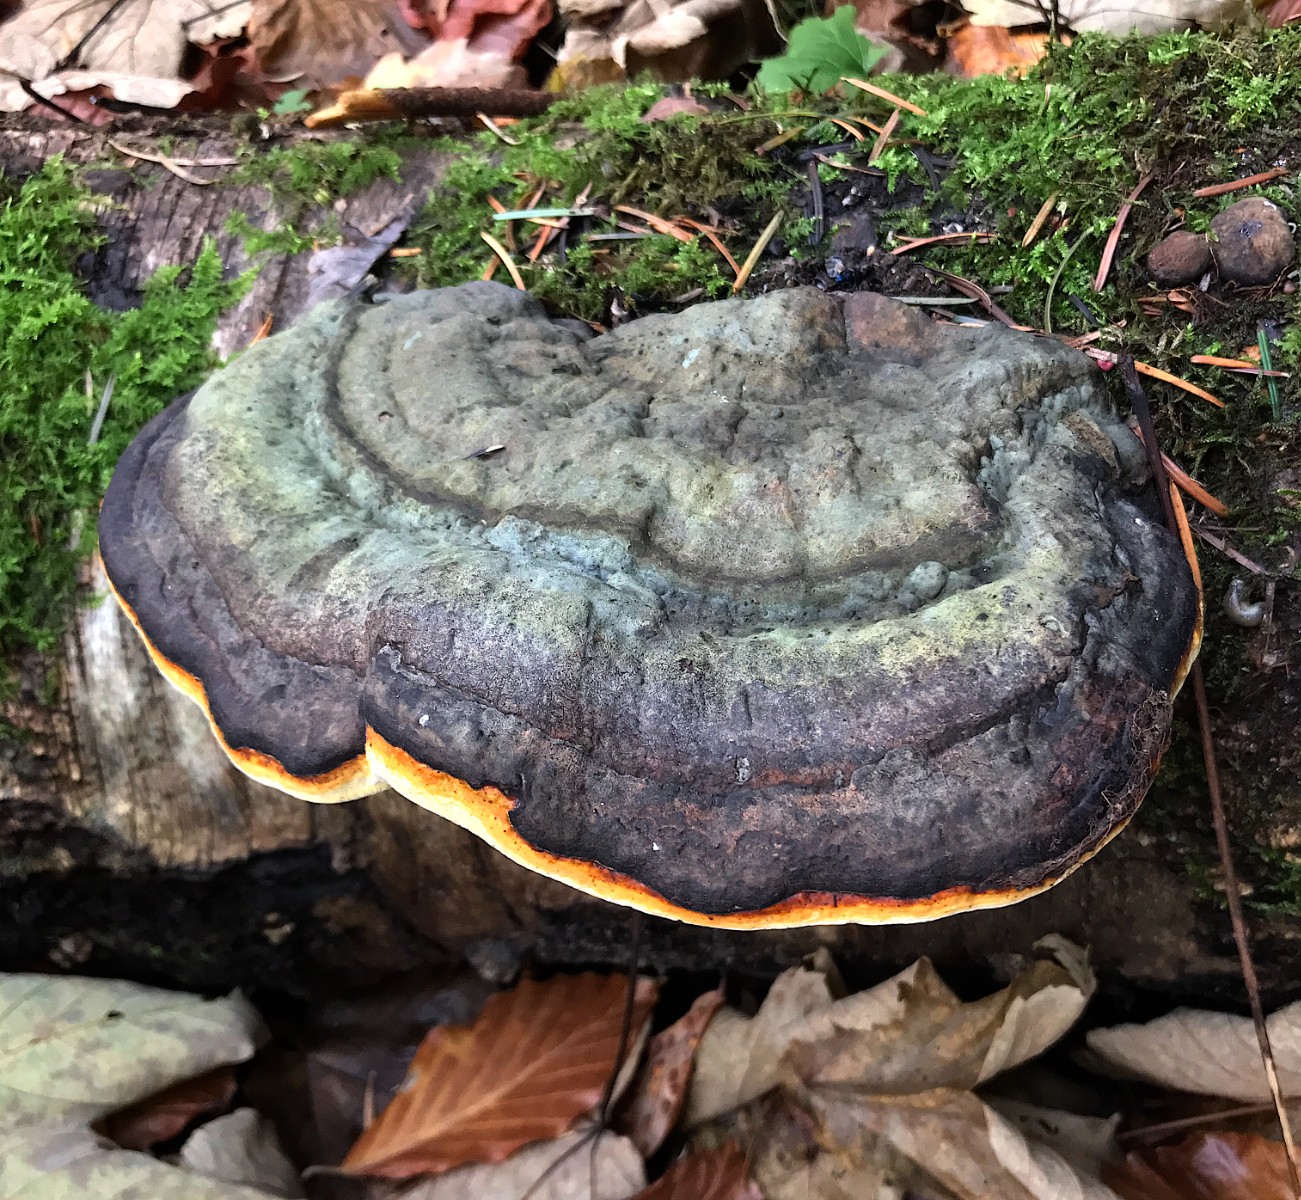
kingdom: Fungi
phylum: Basidiomycota
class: Agaricomycetes
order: Polyporales
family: Fomitopsidaceae
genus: Fomitopsis
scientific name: Fomitopsis pinicola
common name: randbæltet hovporesvamp
